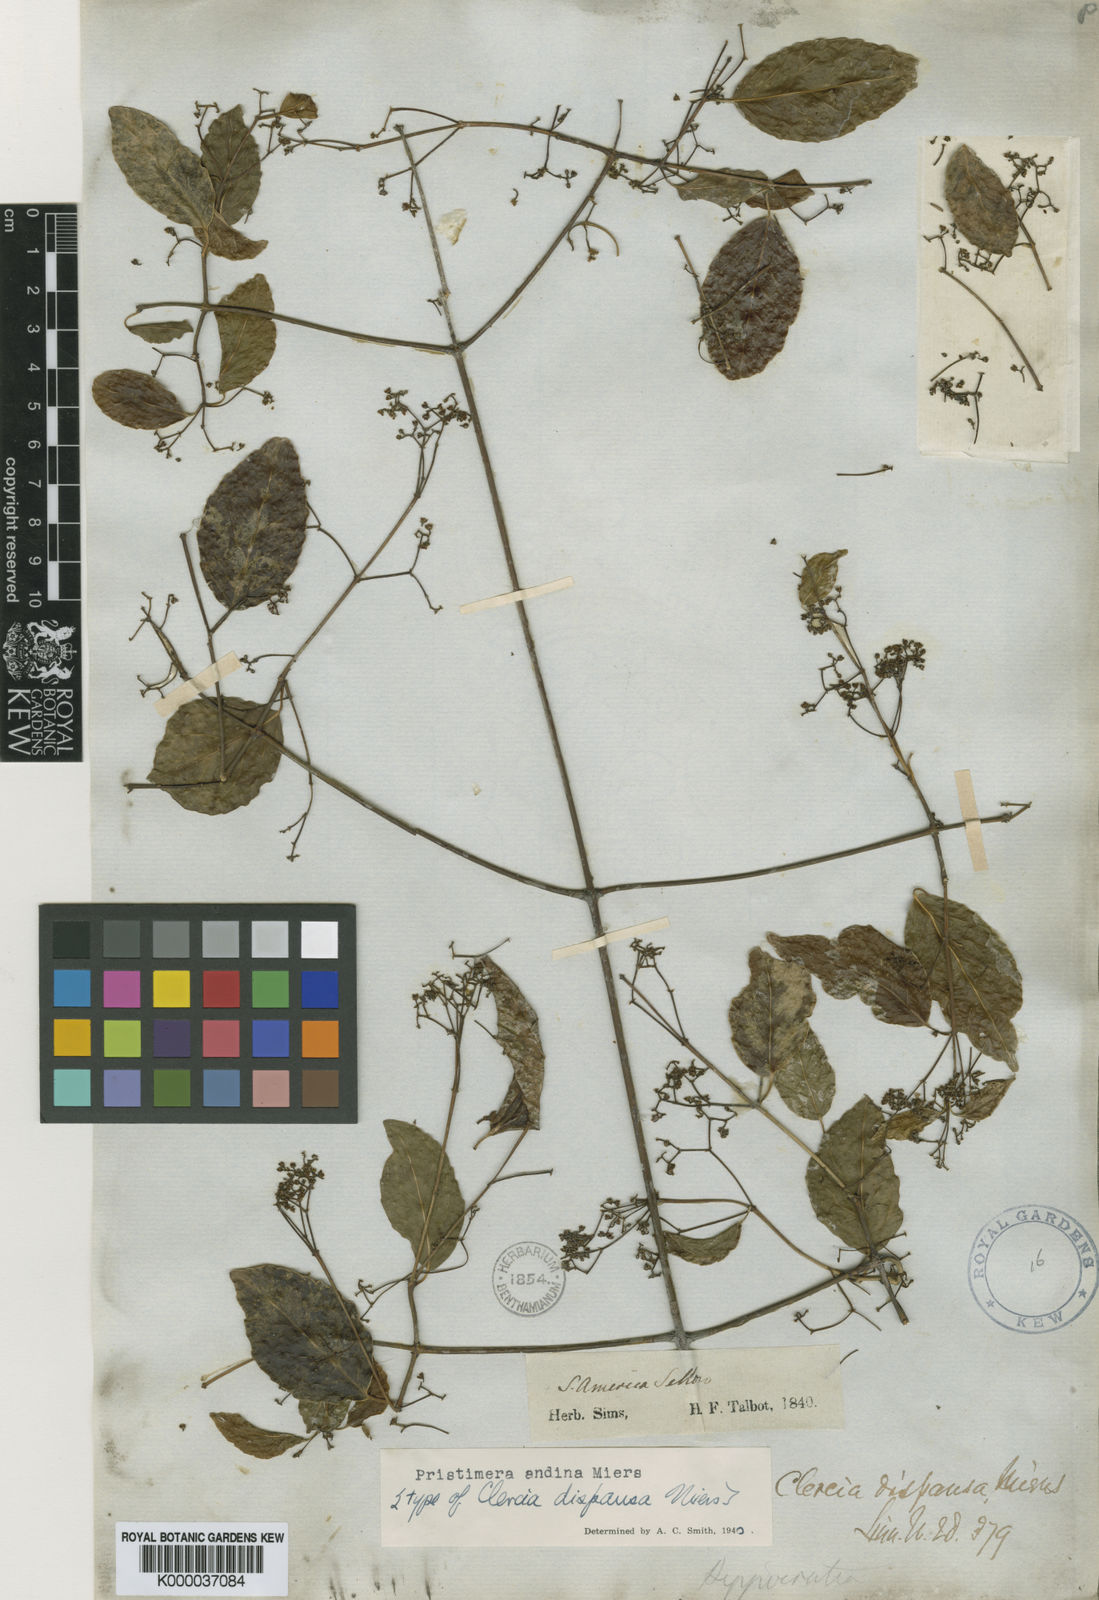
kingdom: Plantae
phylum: Tracheophyta
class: Magnoliopsida
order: Celastrales
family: Celastraceae
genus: Pristimera
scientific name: Pristimera celastroides
